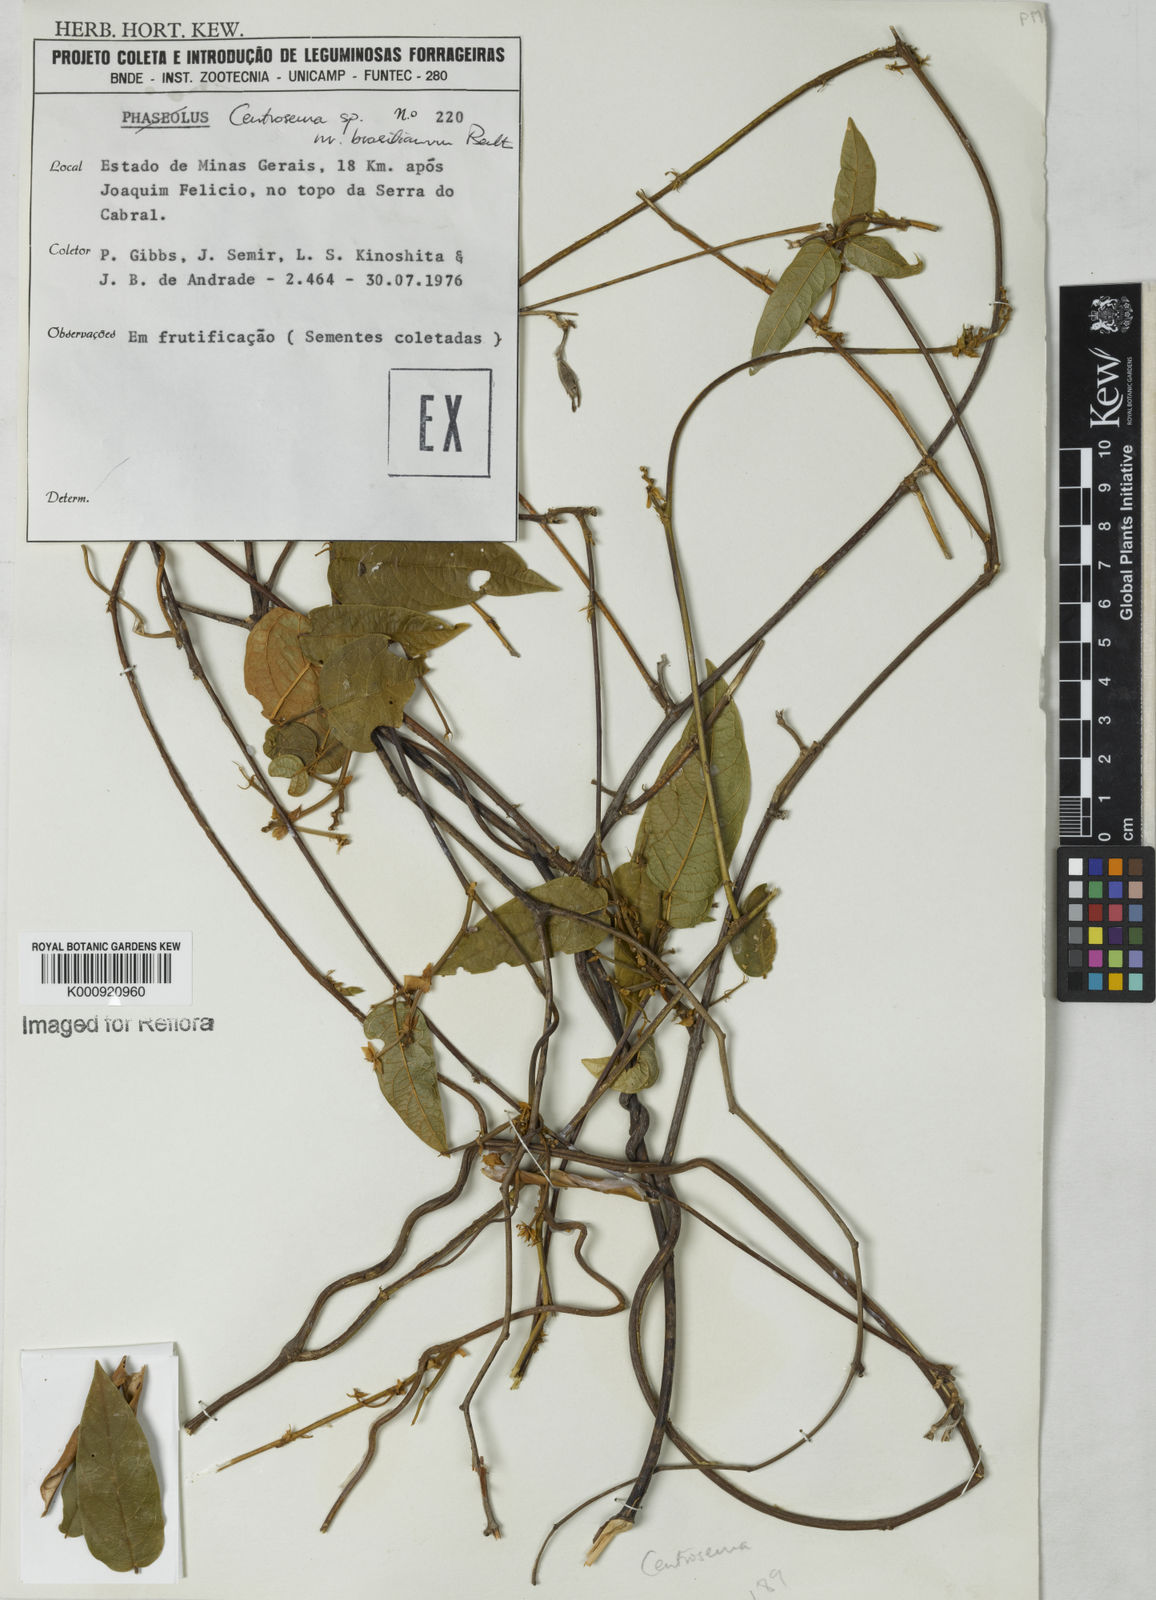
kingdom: Plantae
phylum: Tracheophyta
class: Magnoliopsida
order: Fabales
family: Fabaceae
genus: Centrosema
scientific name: Centrosema
